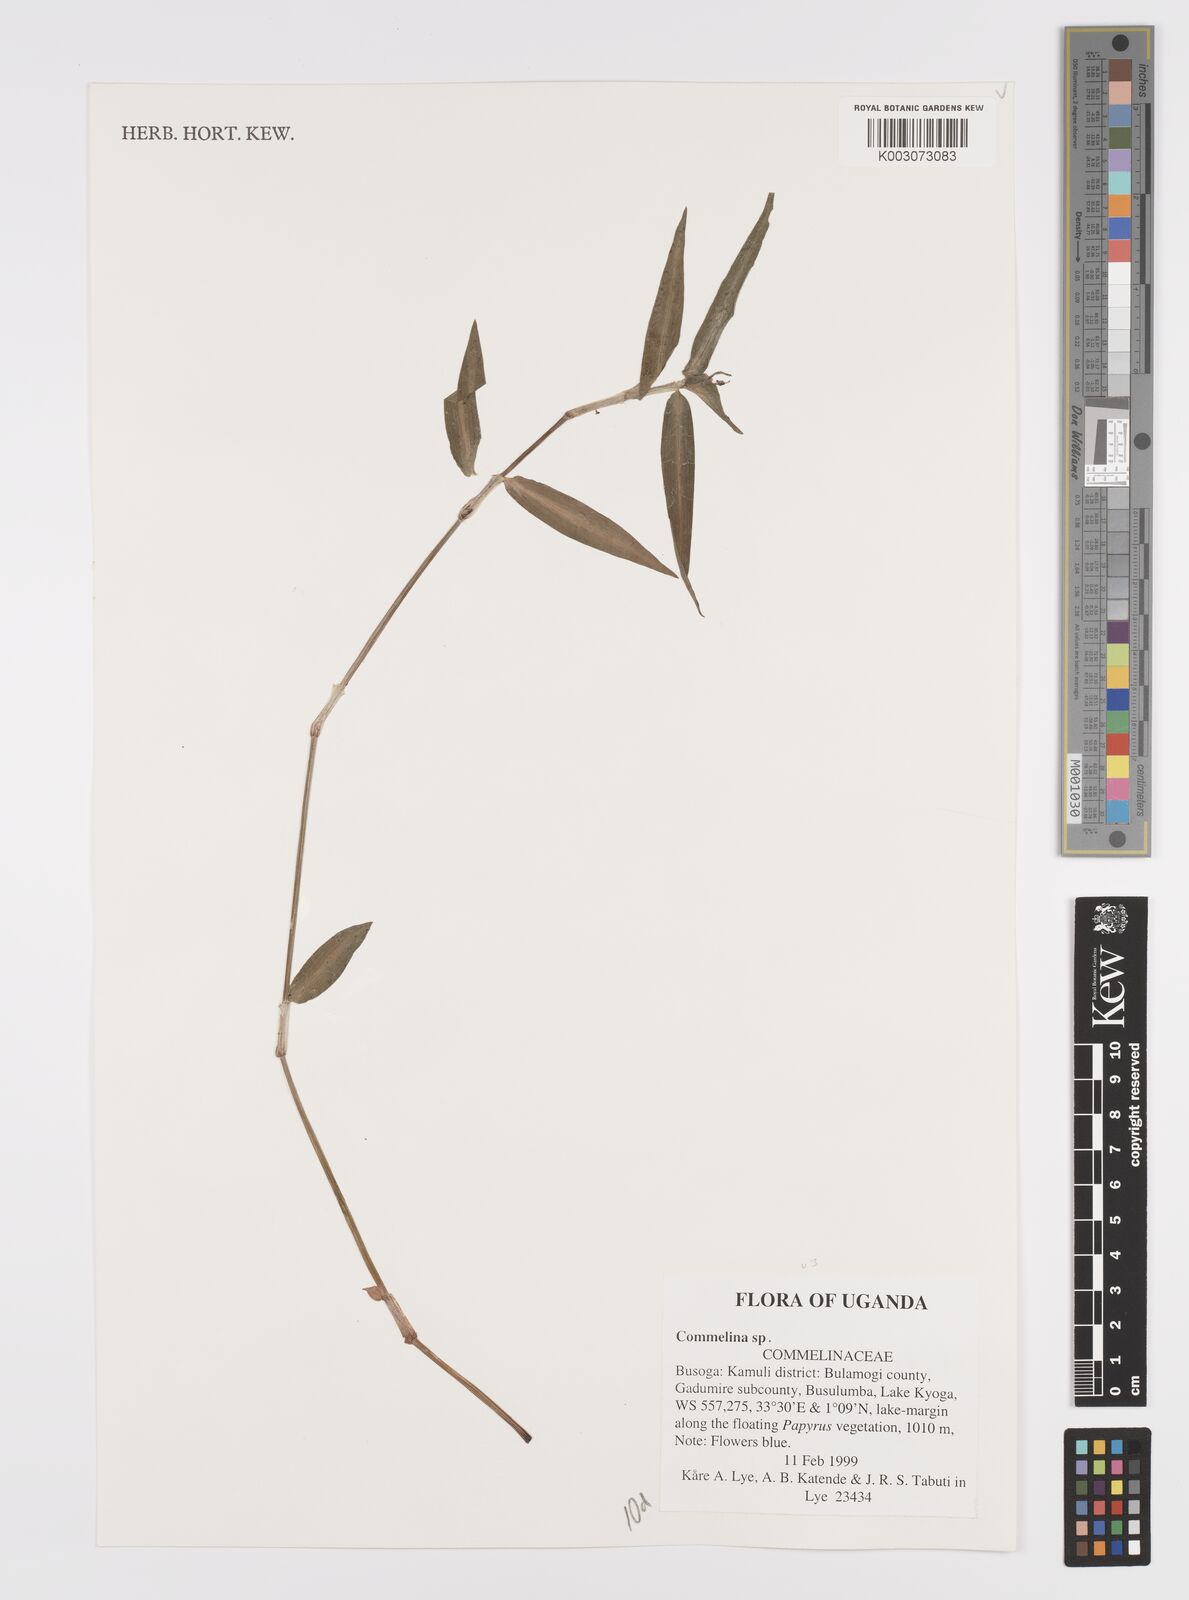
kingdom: Plantae
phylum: Tracheophyta
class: Liliopsida
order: Commelinales
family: Commelinaceae
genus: Commelina
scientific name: Commelina diffusa
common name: Climbing dayflower
